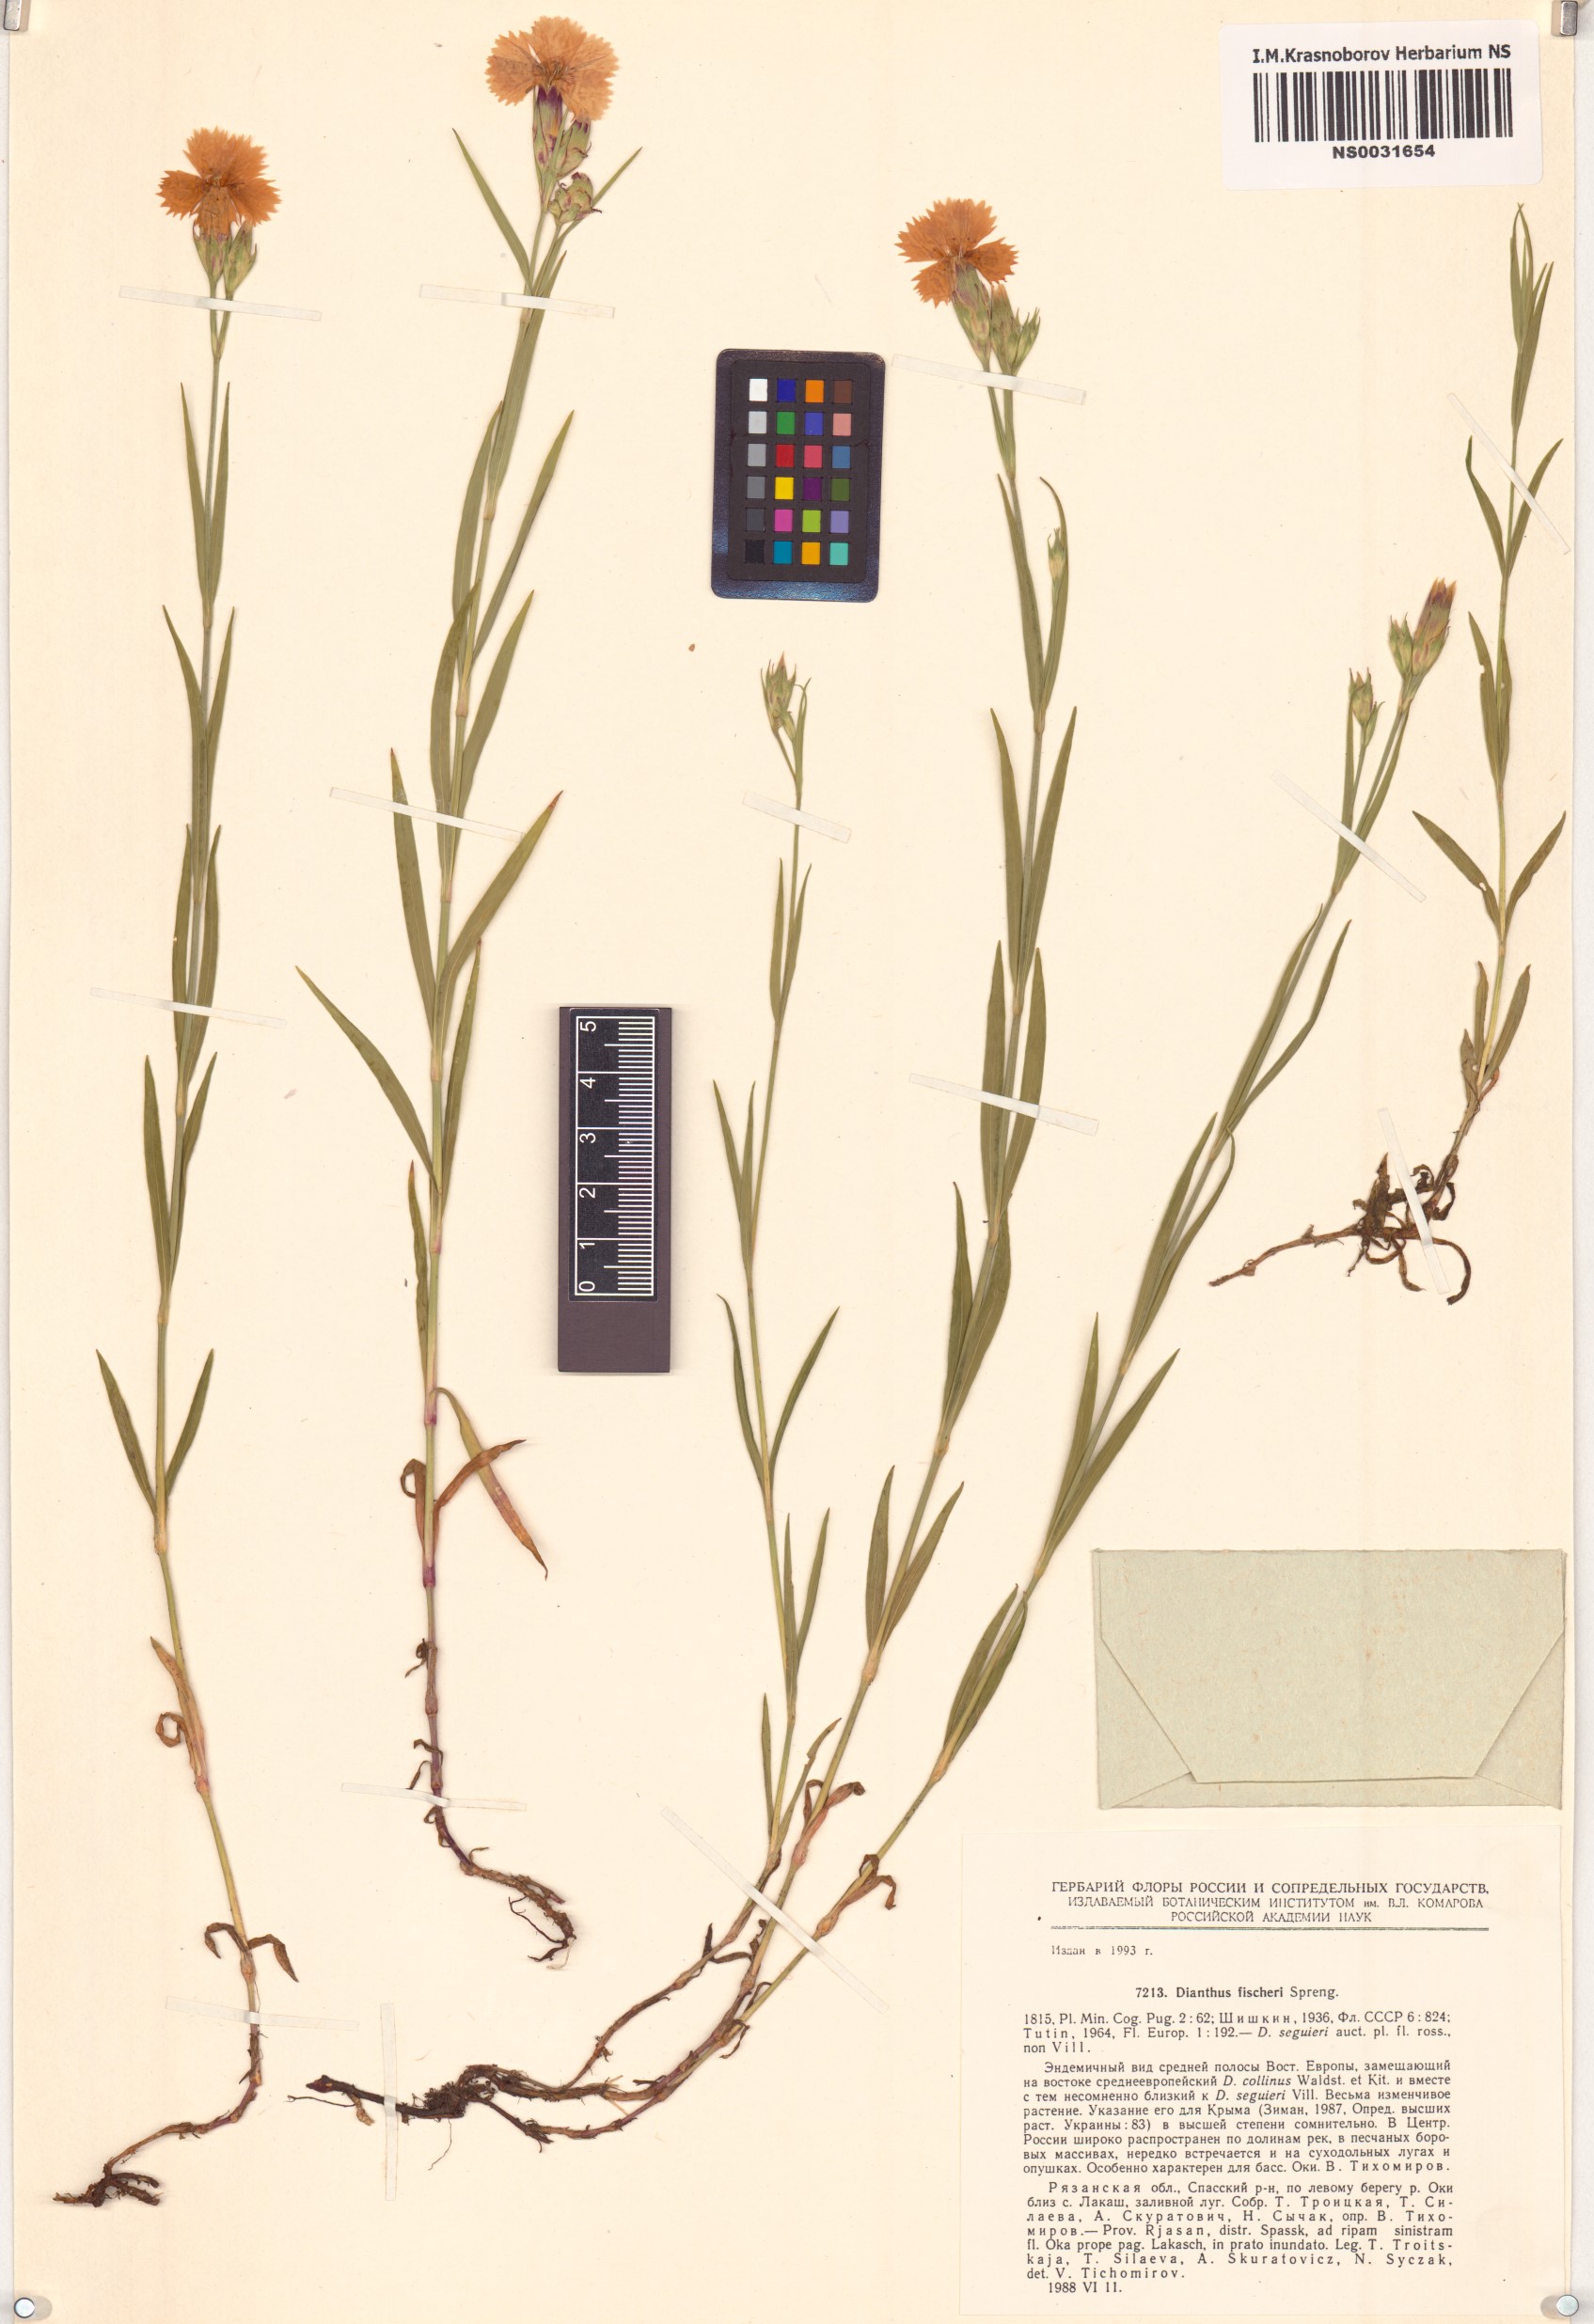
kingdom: Plantae
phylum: Tracheophyta
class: Magnoliopsida
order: Caryophyllales
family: Caryophyllaceae
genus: Dianthus
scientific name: Dianthus chinensis
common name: Rainbow pink
